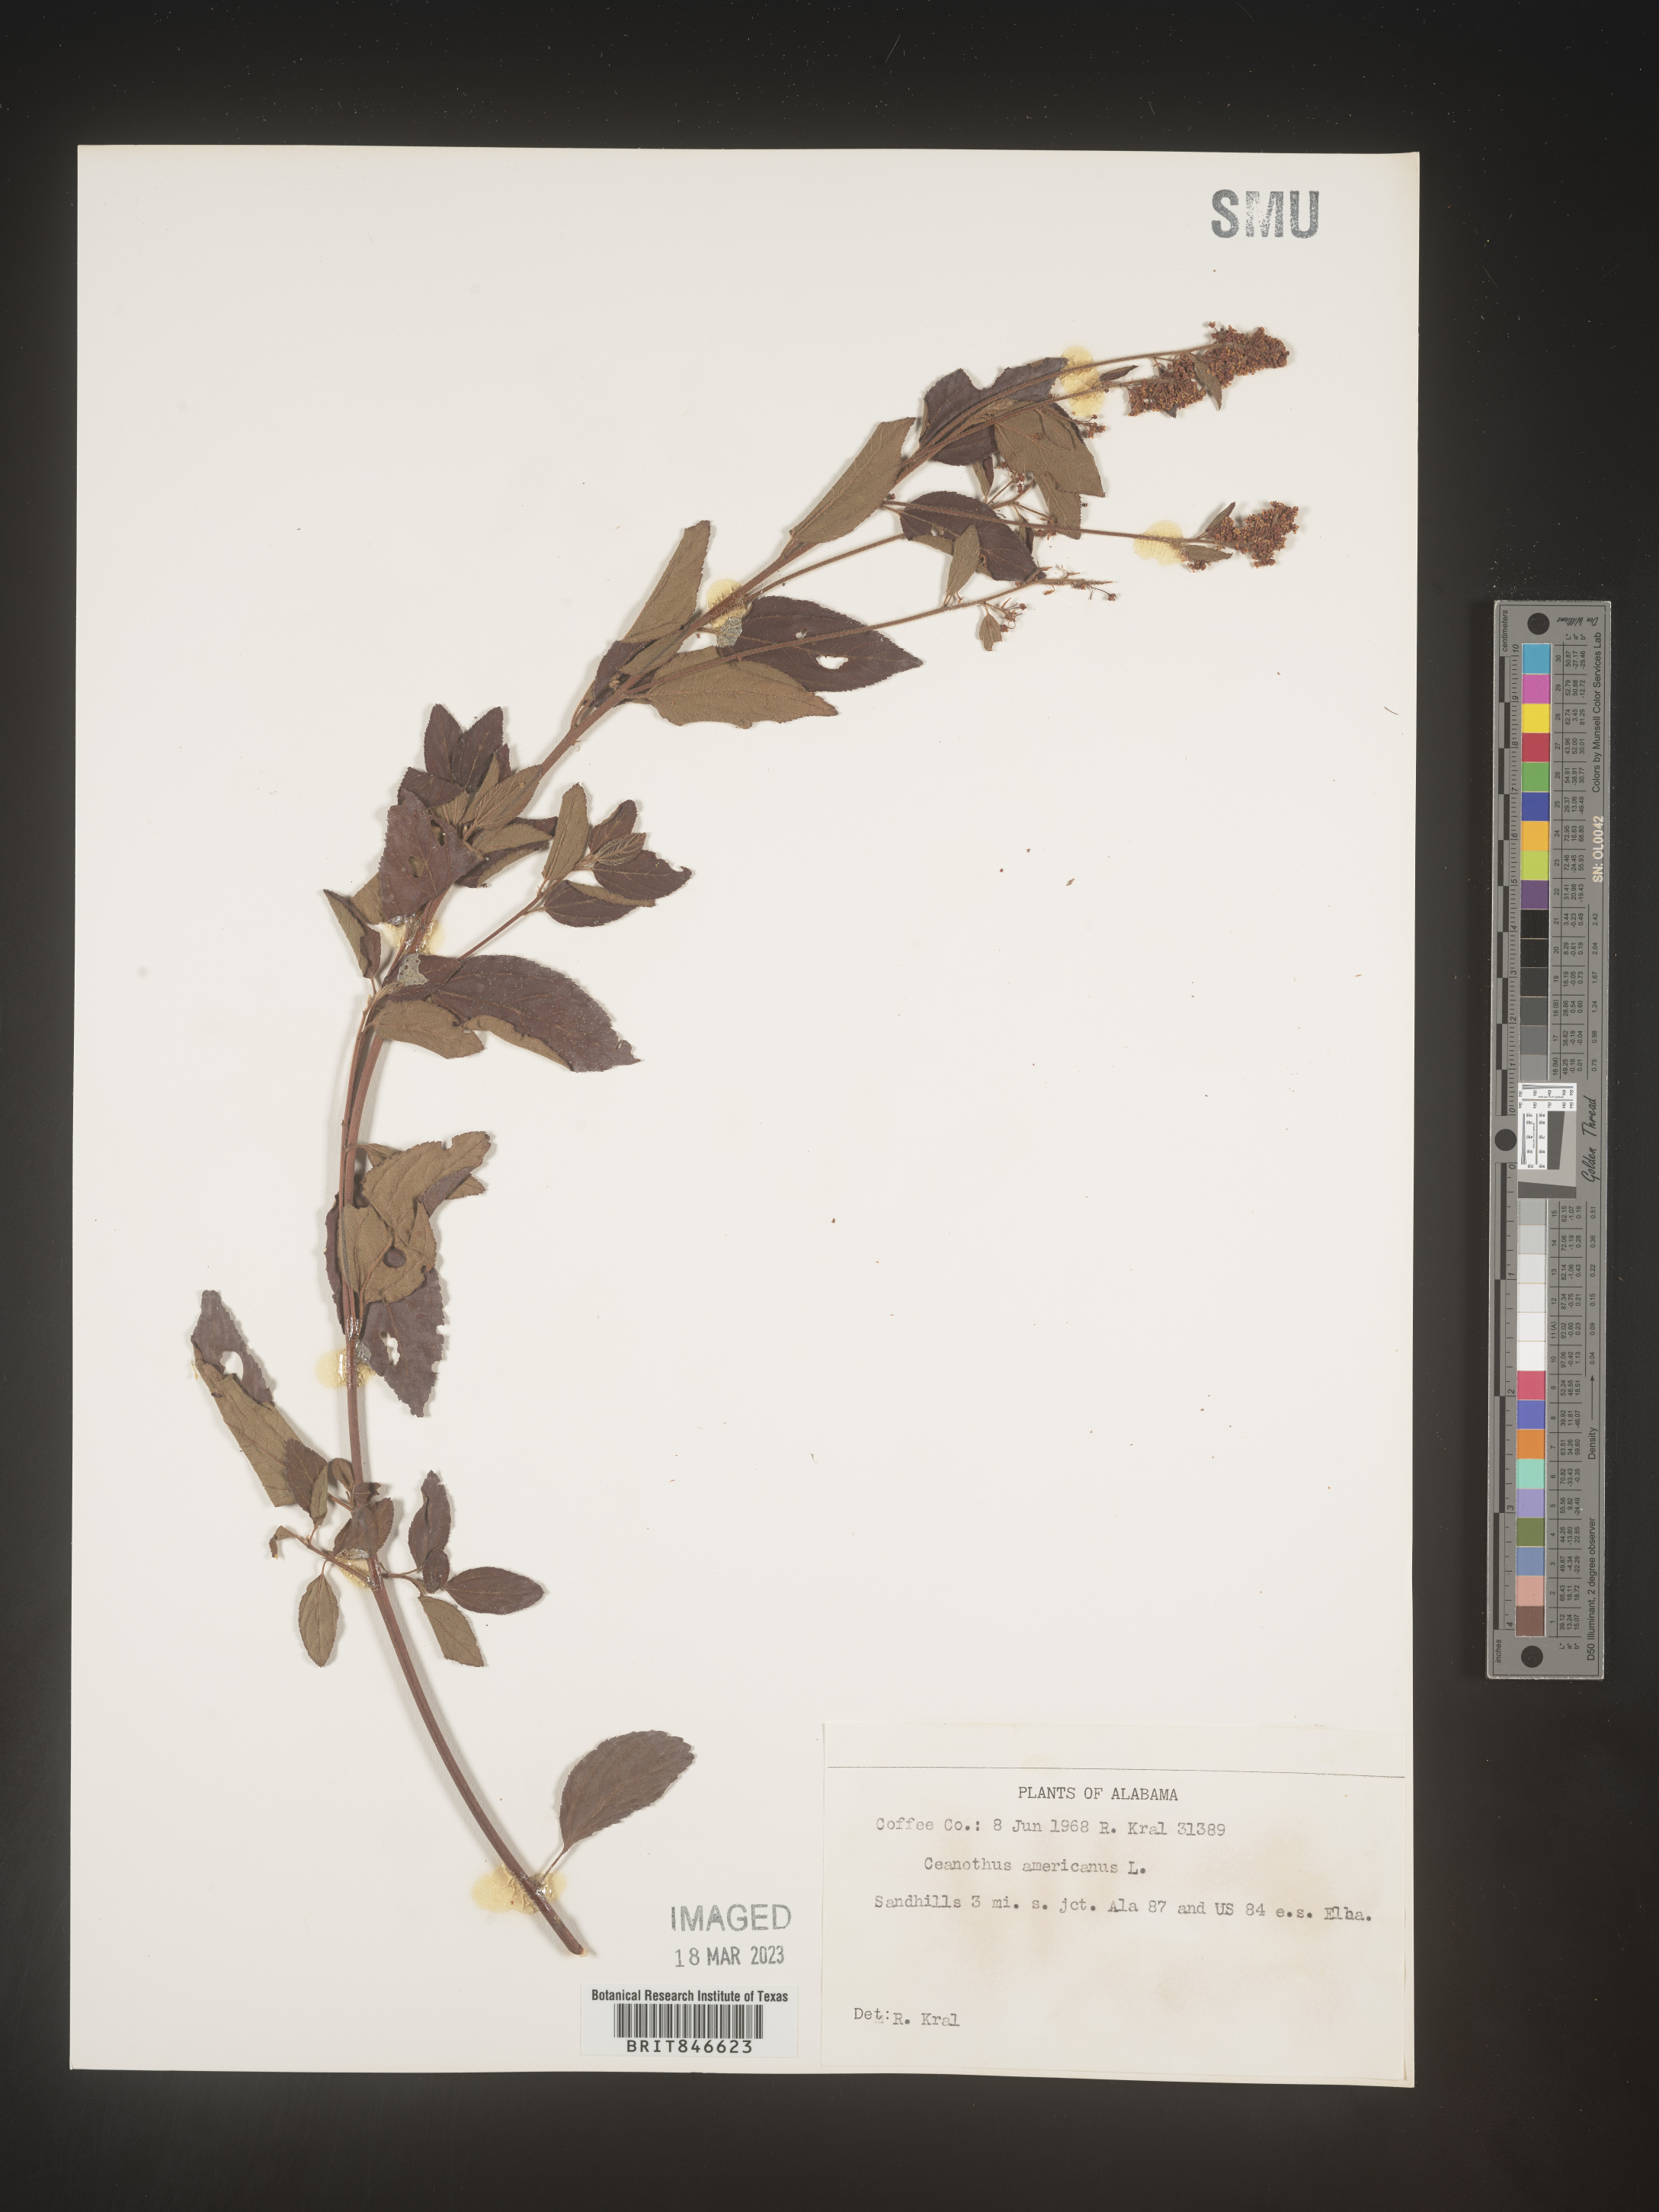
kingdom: Plantae
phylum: Tracheophyta
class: Magnoliopsida
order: Rosales
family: Rhamnaceae
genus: Ceanothus
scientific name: Ceanothus americanus
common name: Redroot
